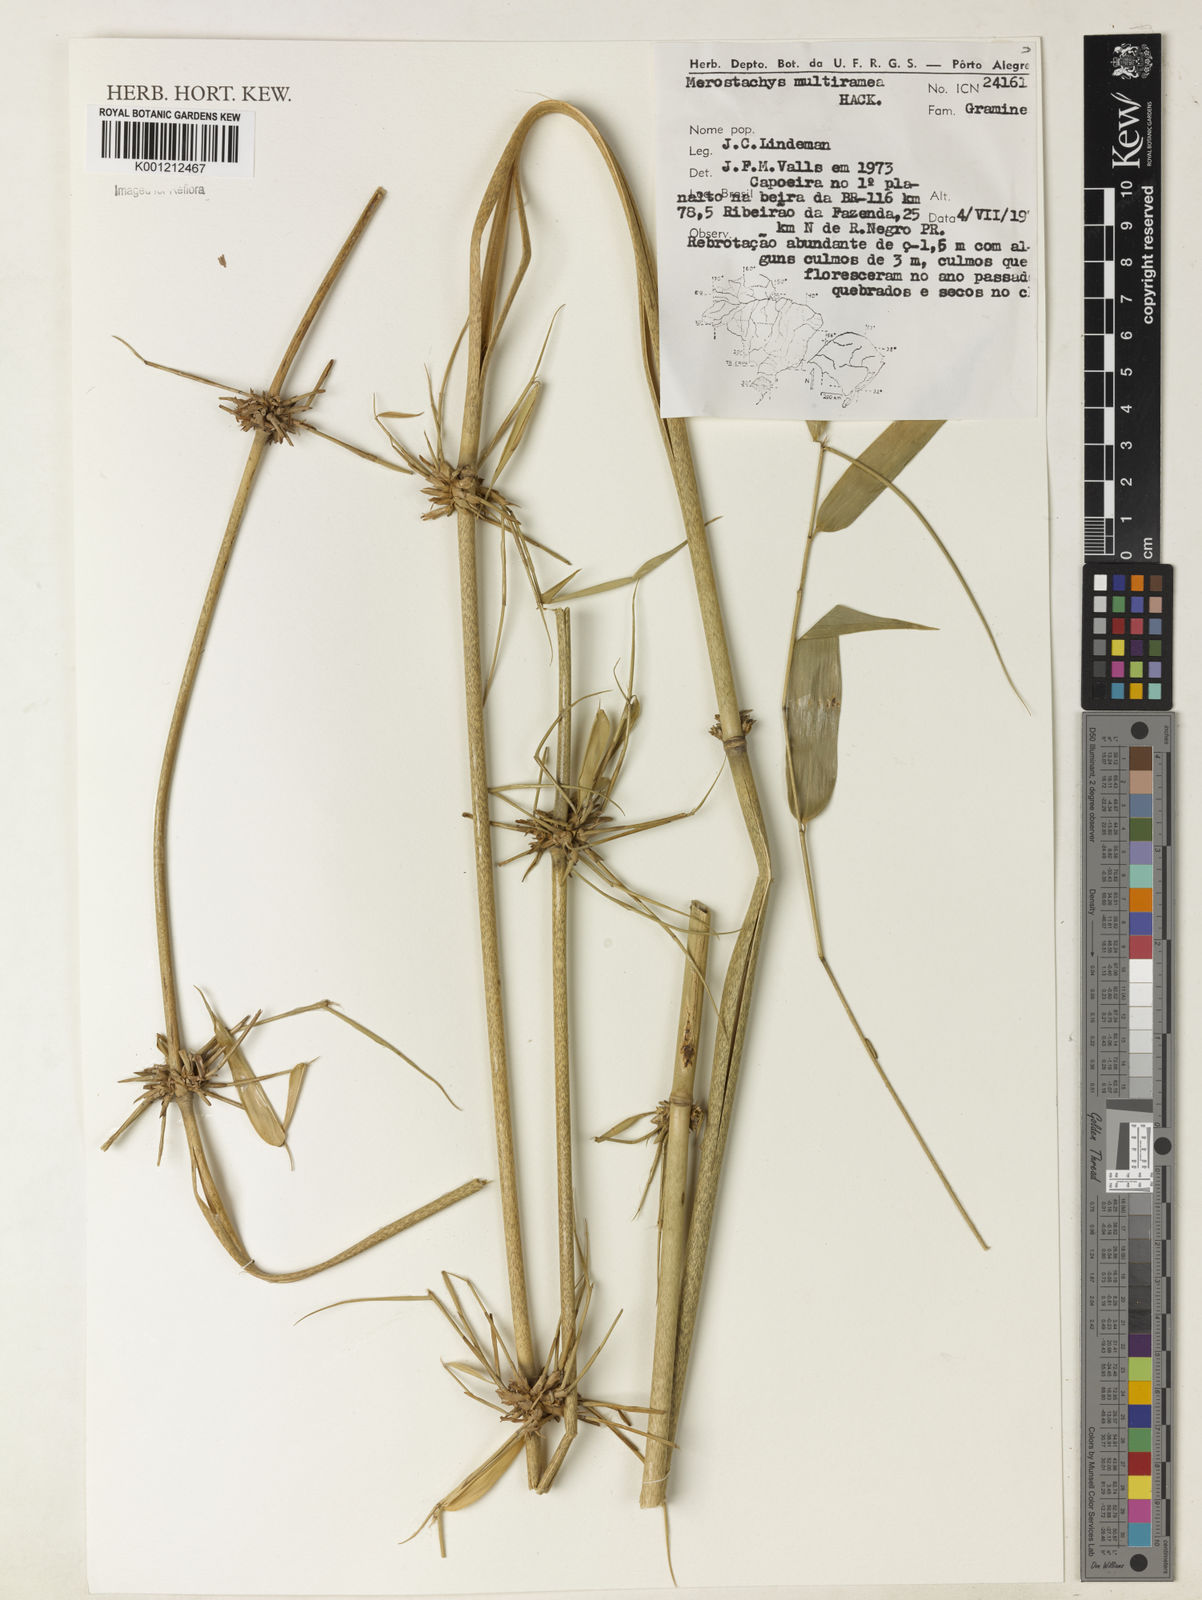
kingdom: Plantae
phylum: Tracheophyta
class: Liliopsida
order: Poales
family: Poaceae
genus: Merostachys
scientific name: Merostachys multiramea
